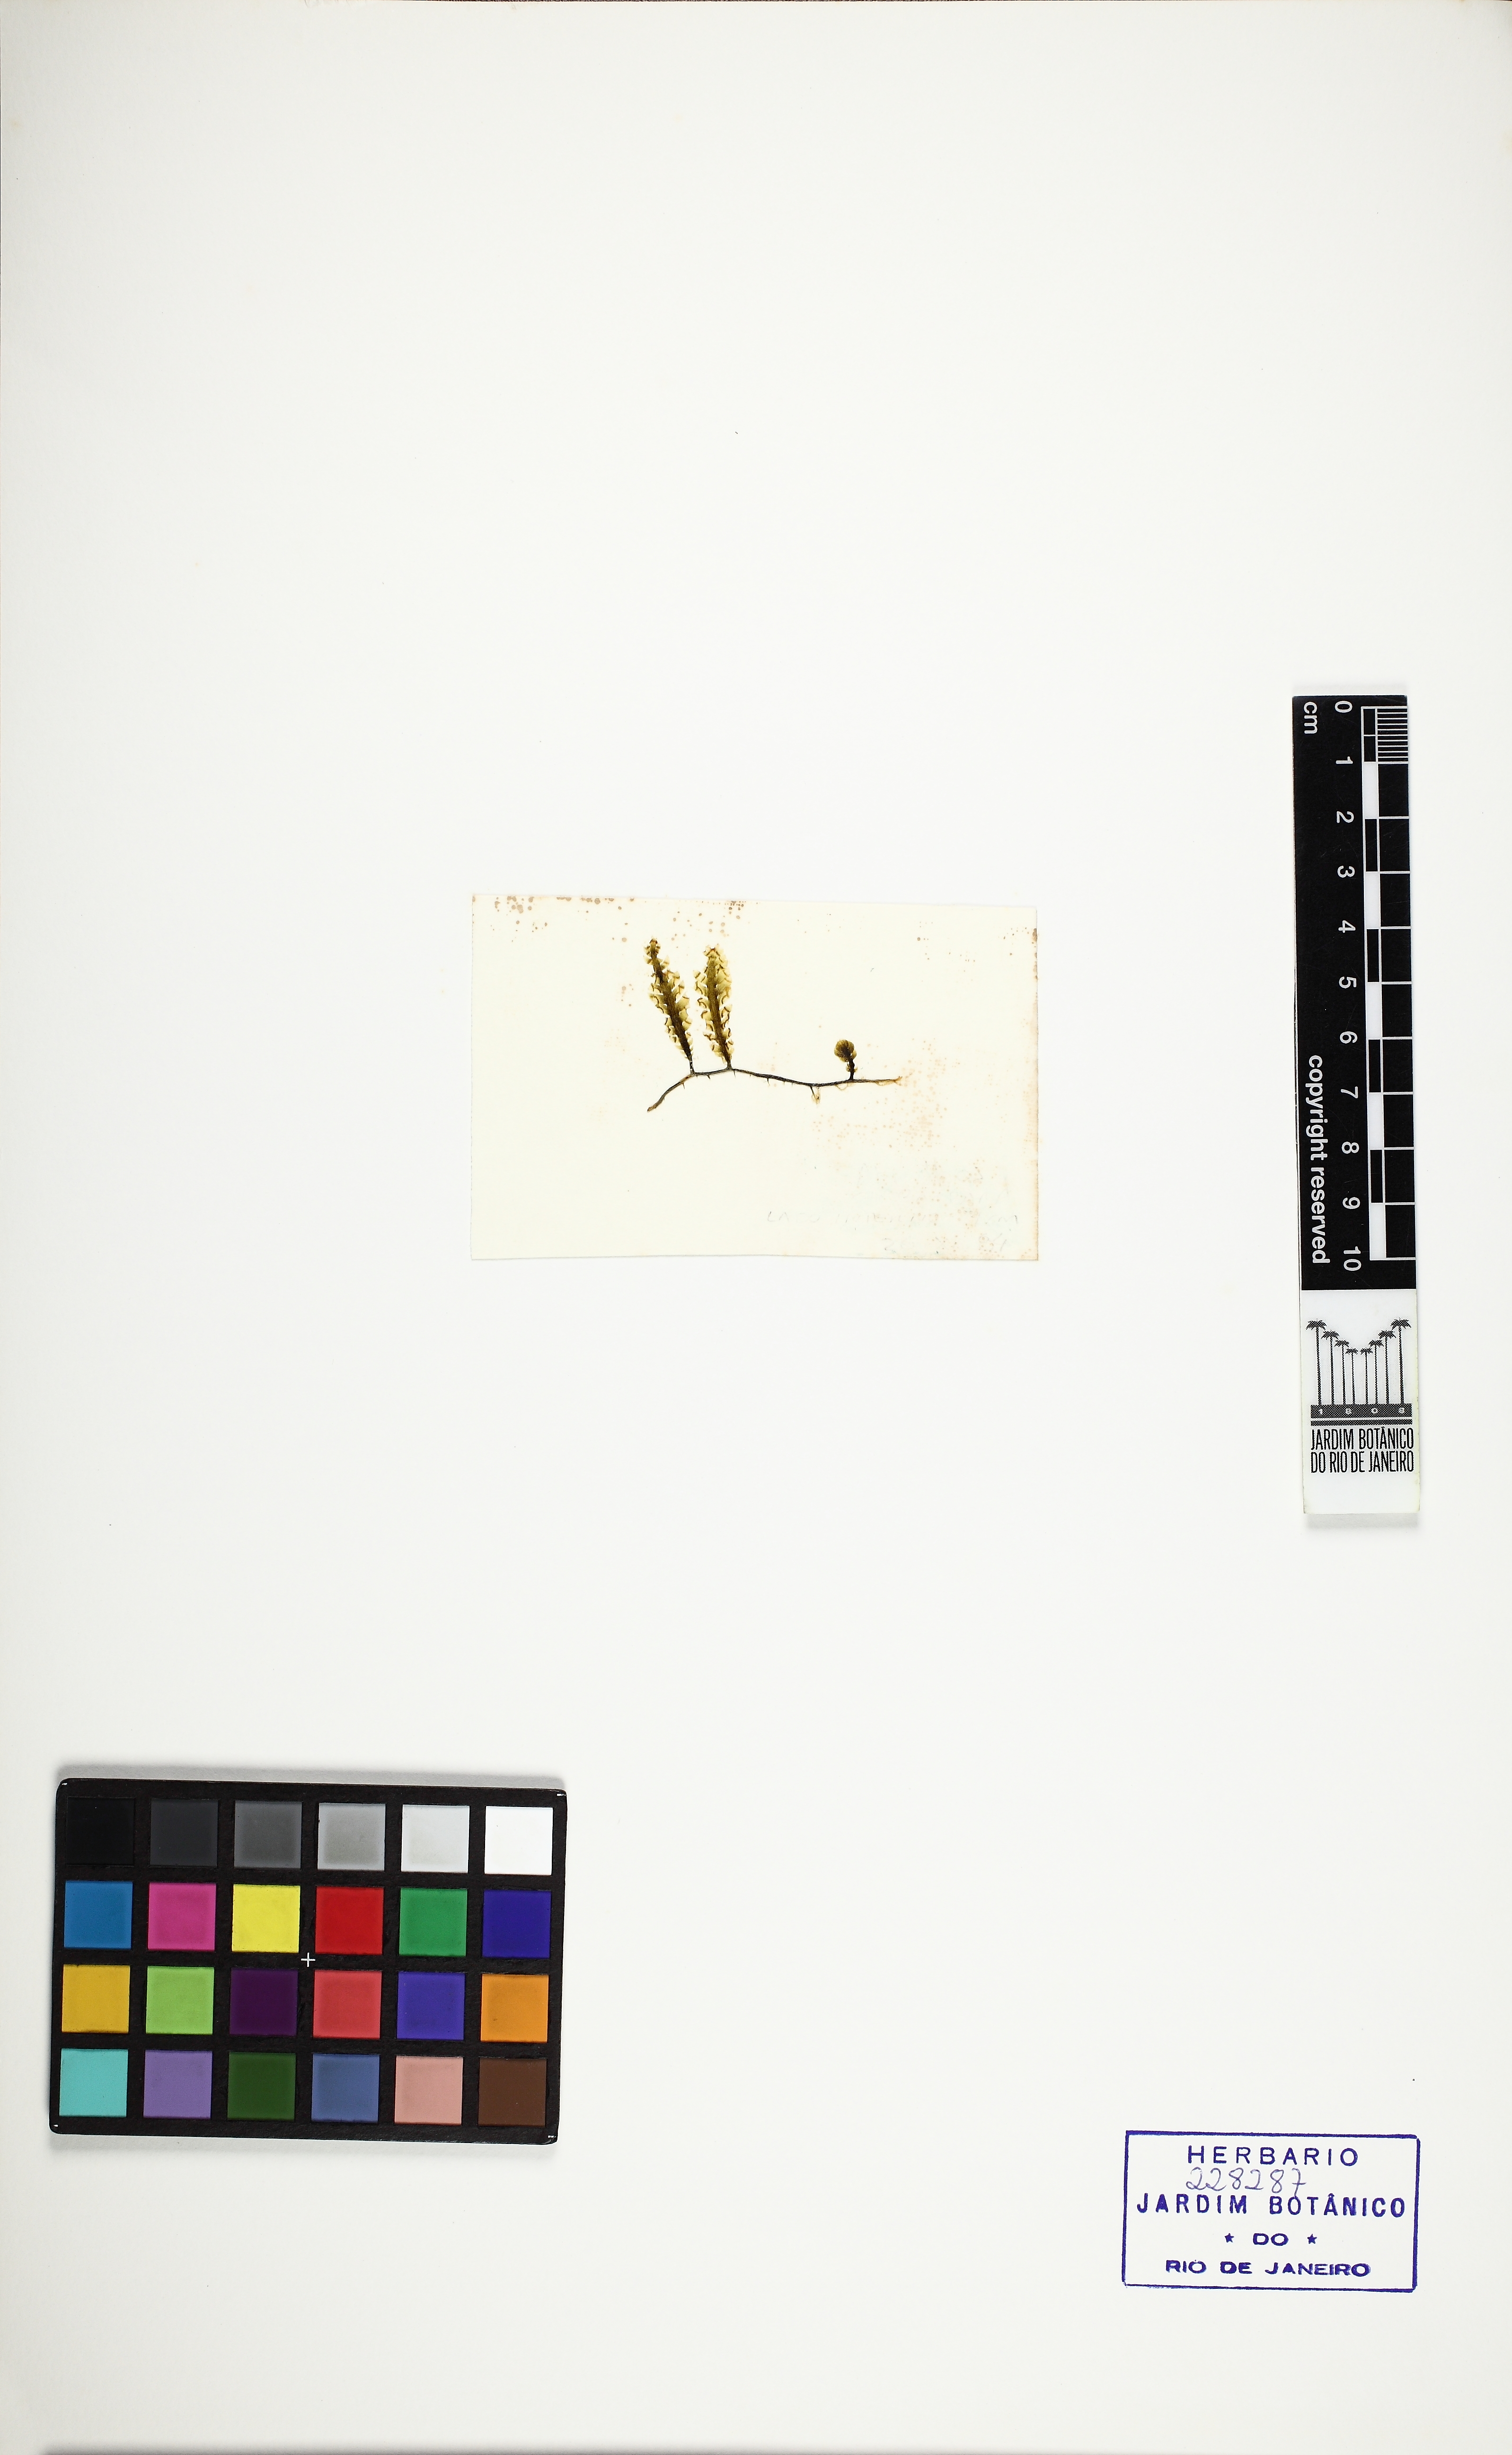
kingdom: Plantae
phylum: Chlorophyta
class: Ulvophyceae
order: Bryopsidales
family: Caulerpaceae
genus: Caulerpa
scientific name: Caulerpa mexicana
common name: Flat green feather algae
